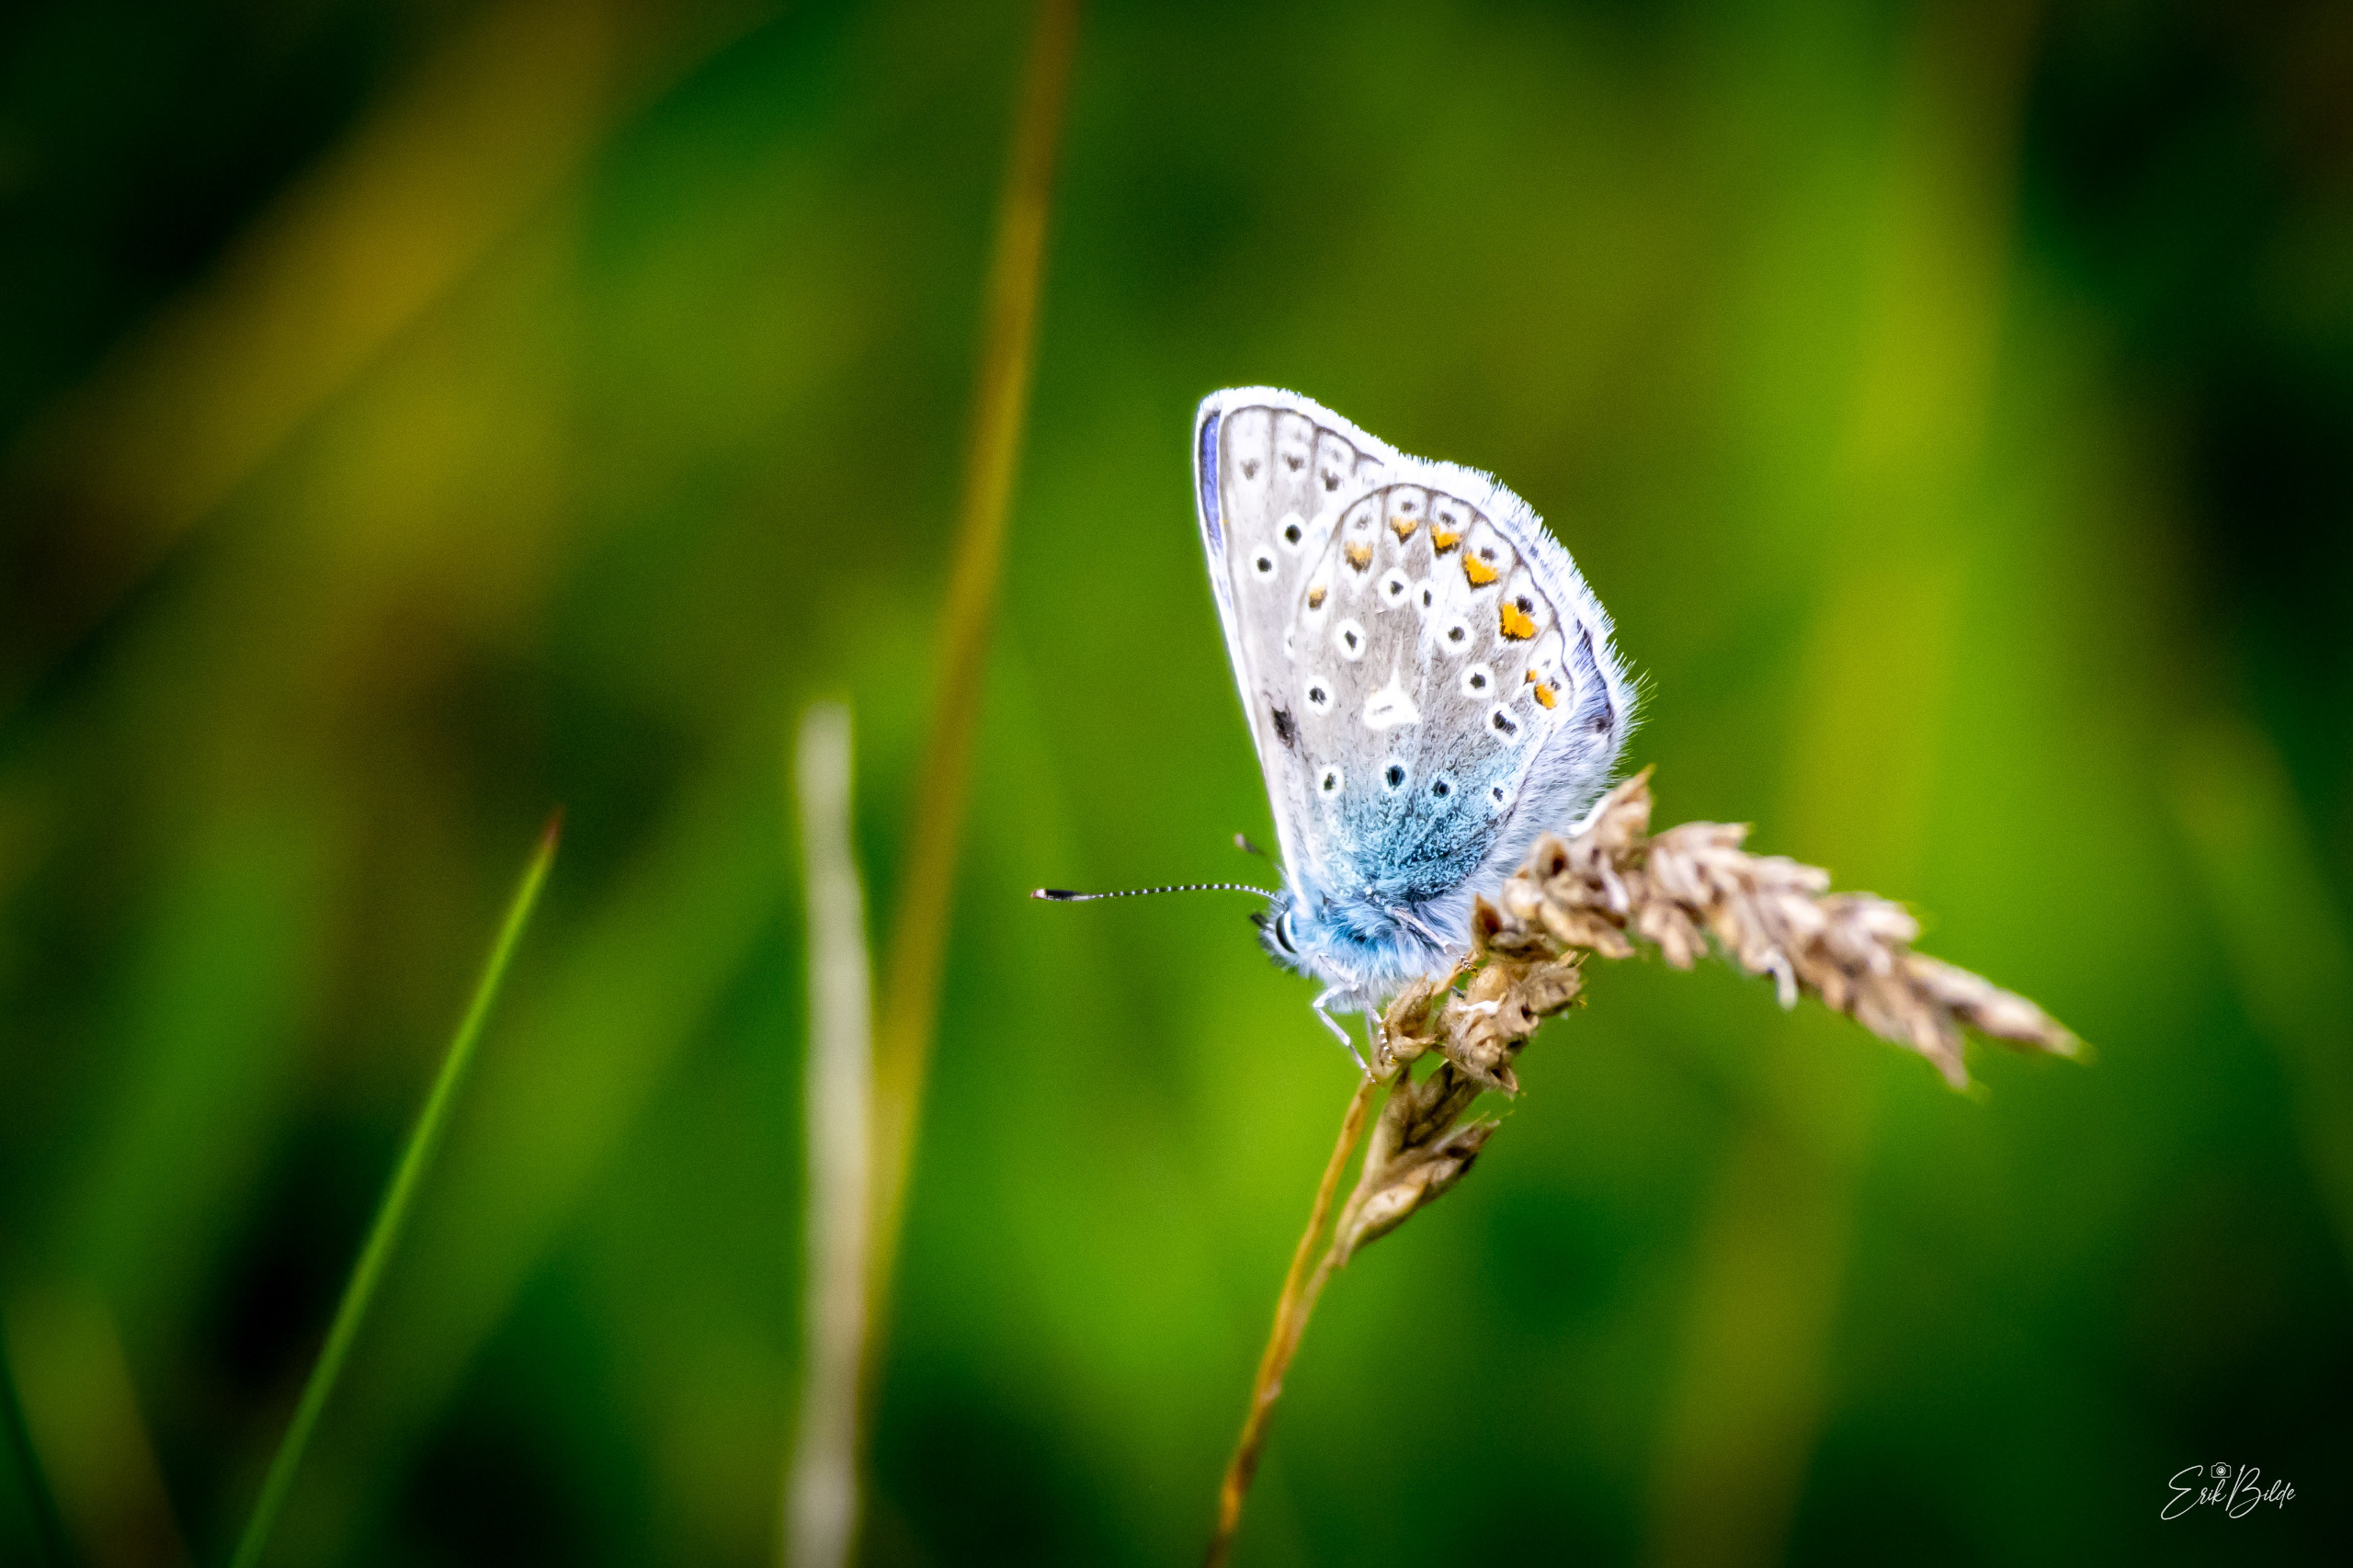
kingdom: Animalia
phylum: Arthropoda
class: Insecta
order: Lepidoptera
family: Lycaenidae
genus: Polyommatus
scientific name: Polyommatus icarus
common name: Almindelig blåfugl
